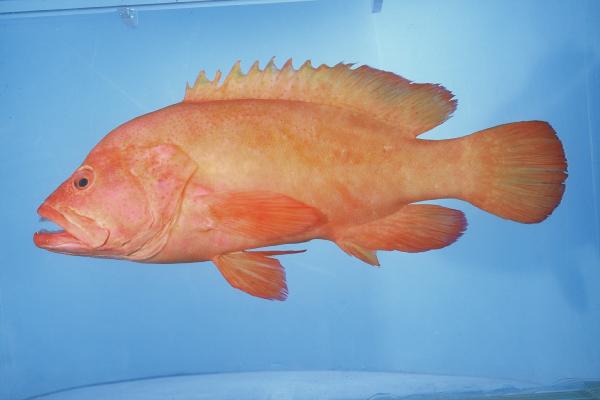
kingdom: Animalia
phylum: Chordata
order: Perciformes
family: Serranidae
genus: Cephalopholis
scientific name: Cephalopholis aurantia
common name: Golden hind
